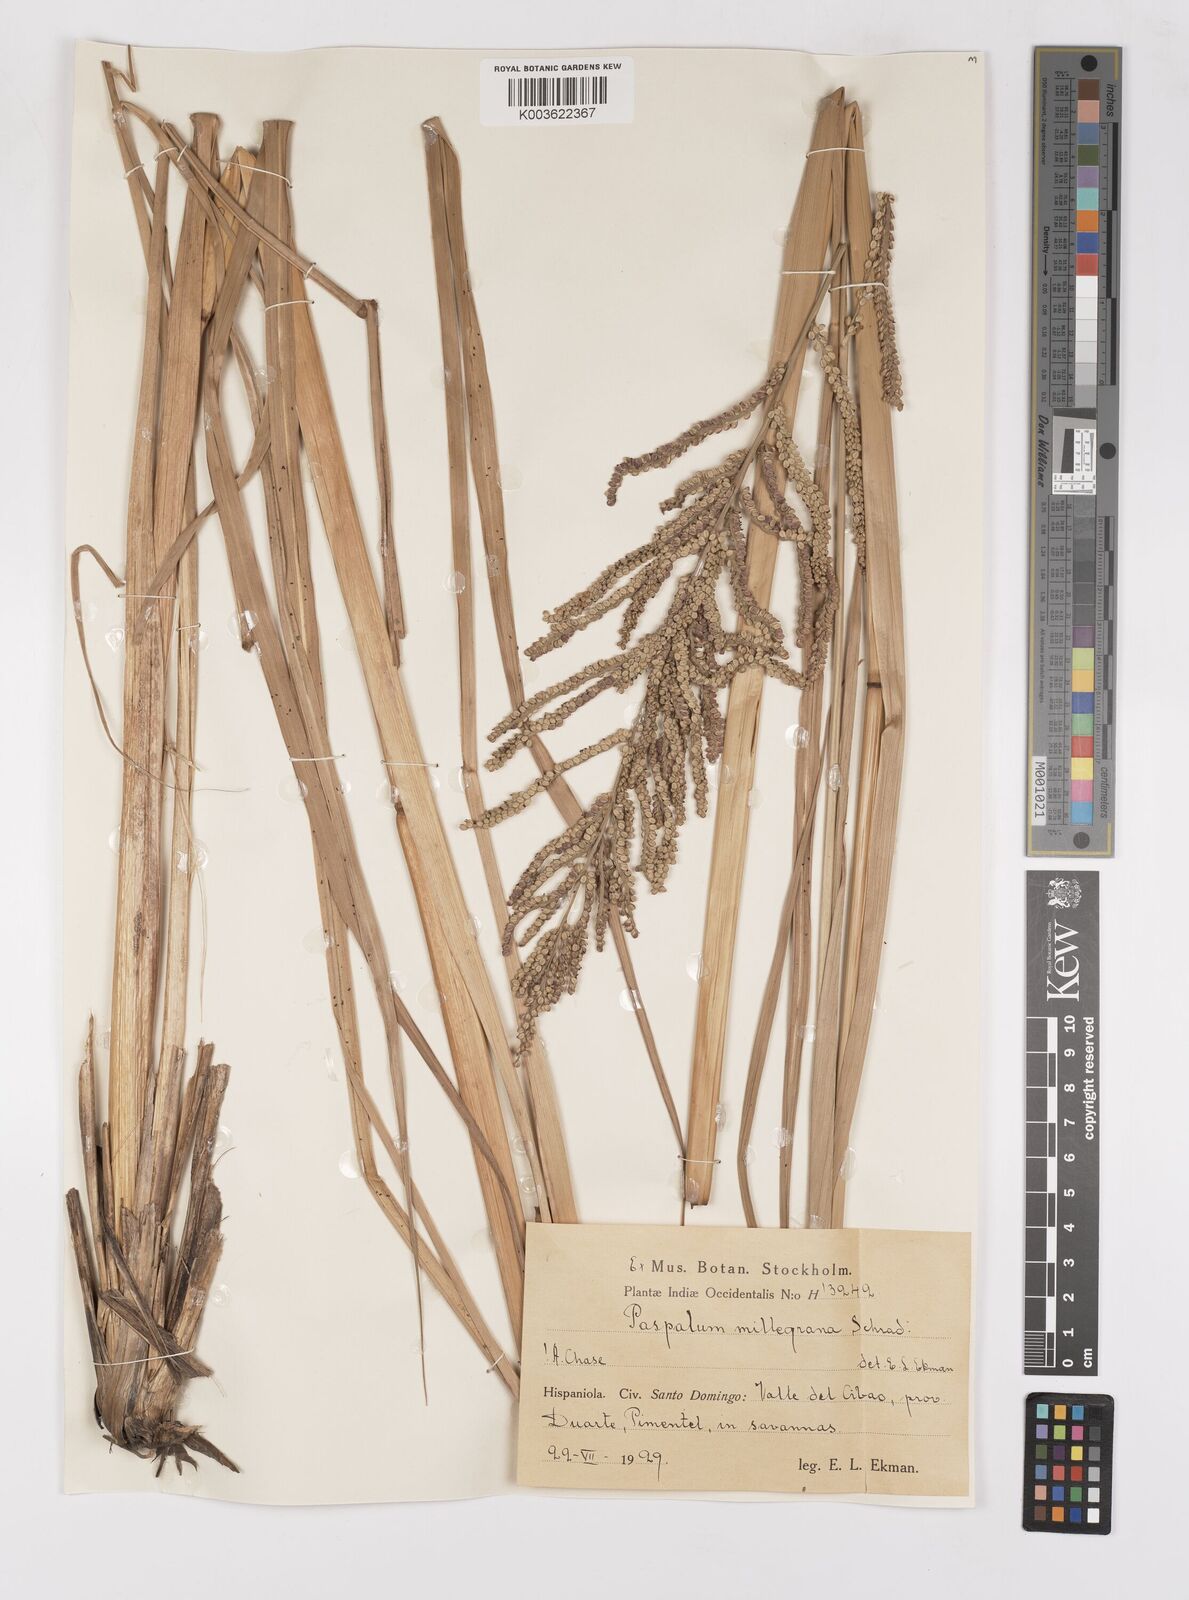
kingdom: Plantae
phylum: Tracheophyta
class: Liliopsida
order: Poales
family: Poaceae
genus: Paspalum
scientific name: Paspalum millegranum
